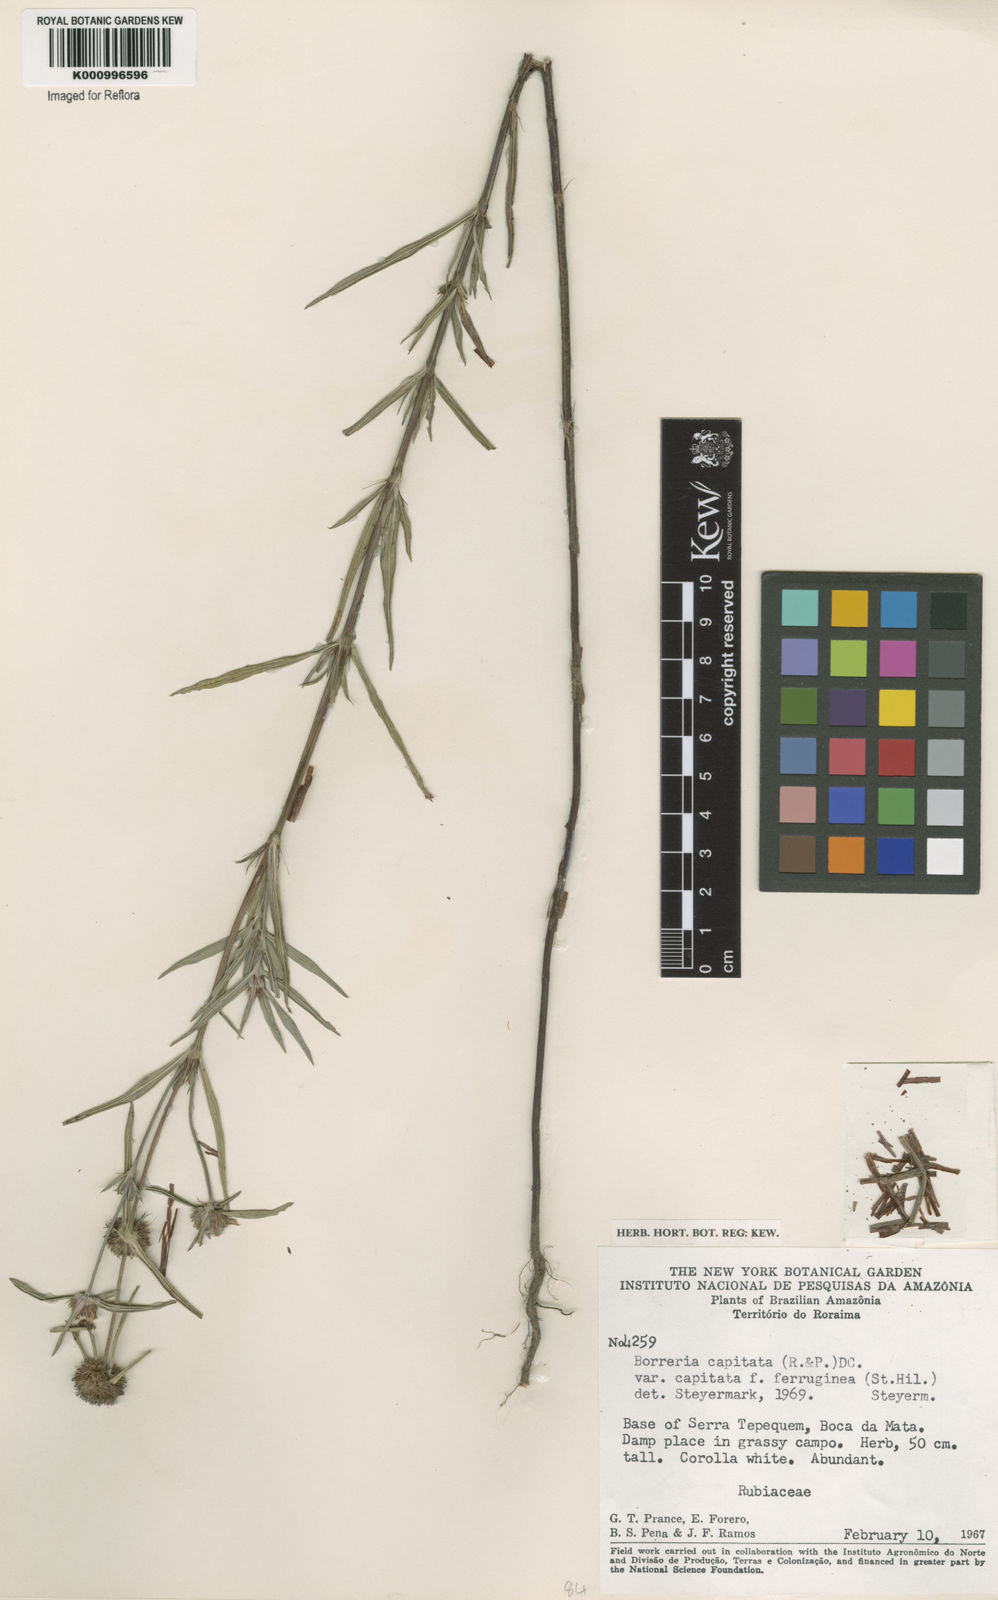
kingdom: Plantae
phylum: Tracheophyta
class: Magnoliopsida
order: Gentianales
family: Rubiaceae
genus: Spermacoce
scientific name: Spermacoce capitata
